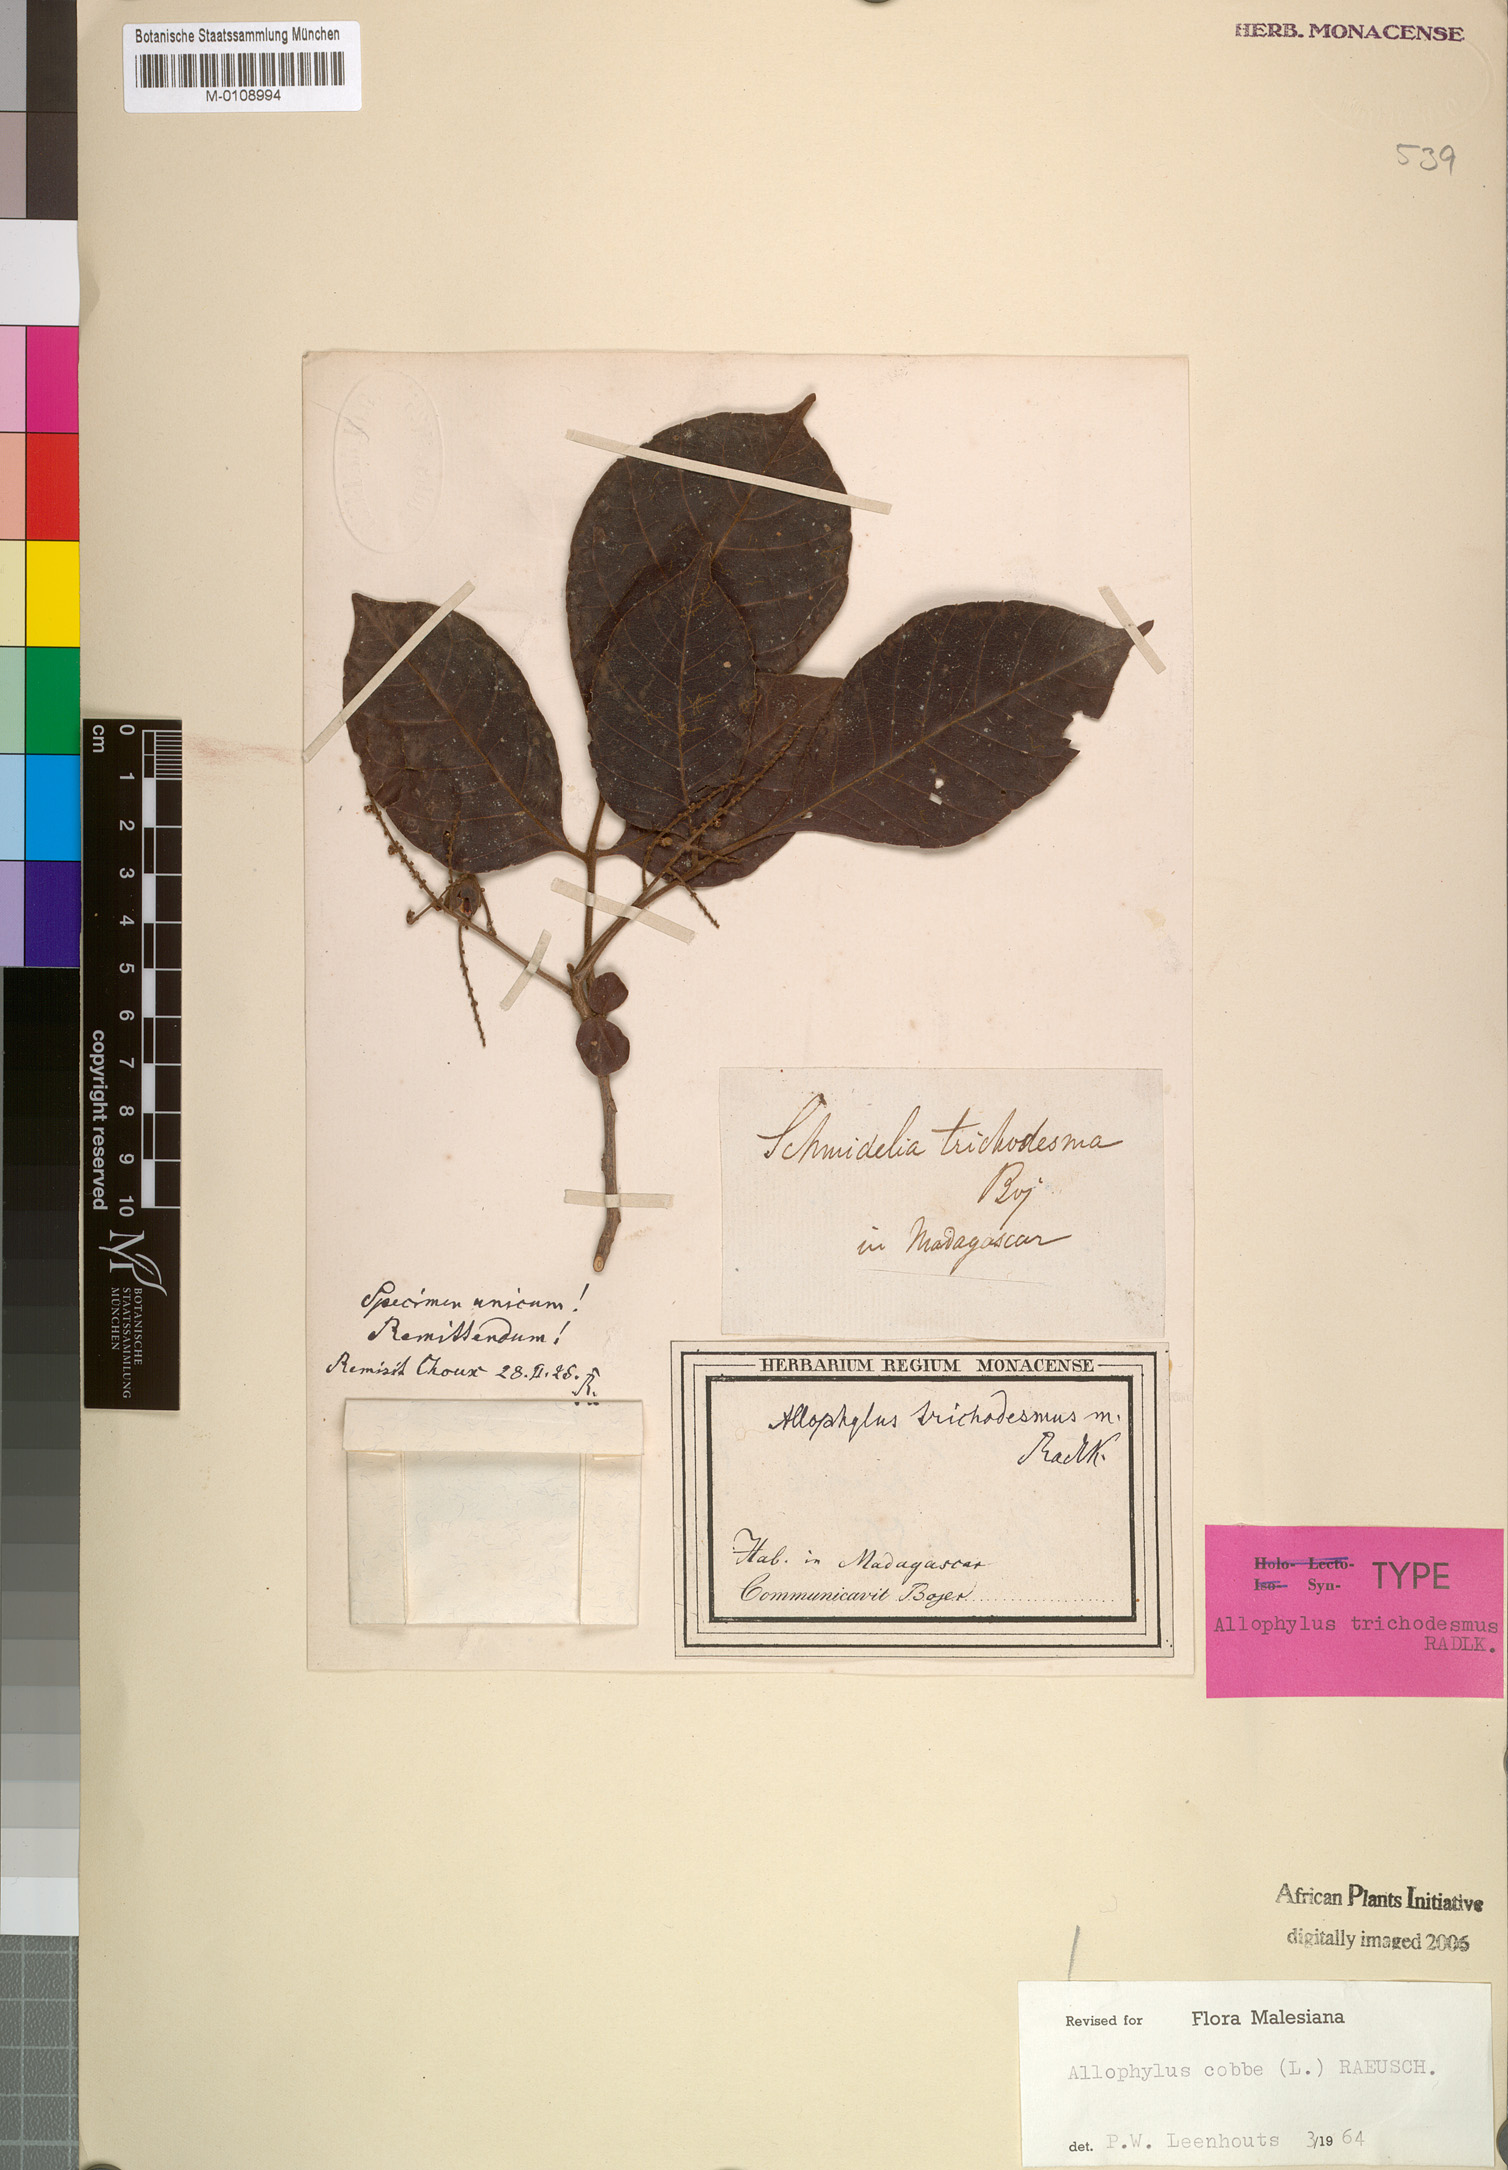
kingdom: Plantae
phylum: Tracheophyta
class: Magnoliopsida
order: Sapindales
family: Sapindaceae
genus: Allophylus
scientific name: Allophylus trichodesmus
